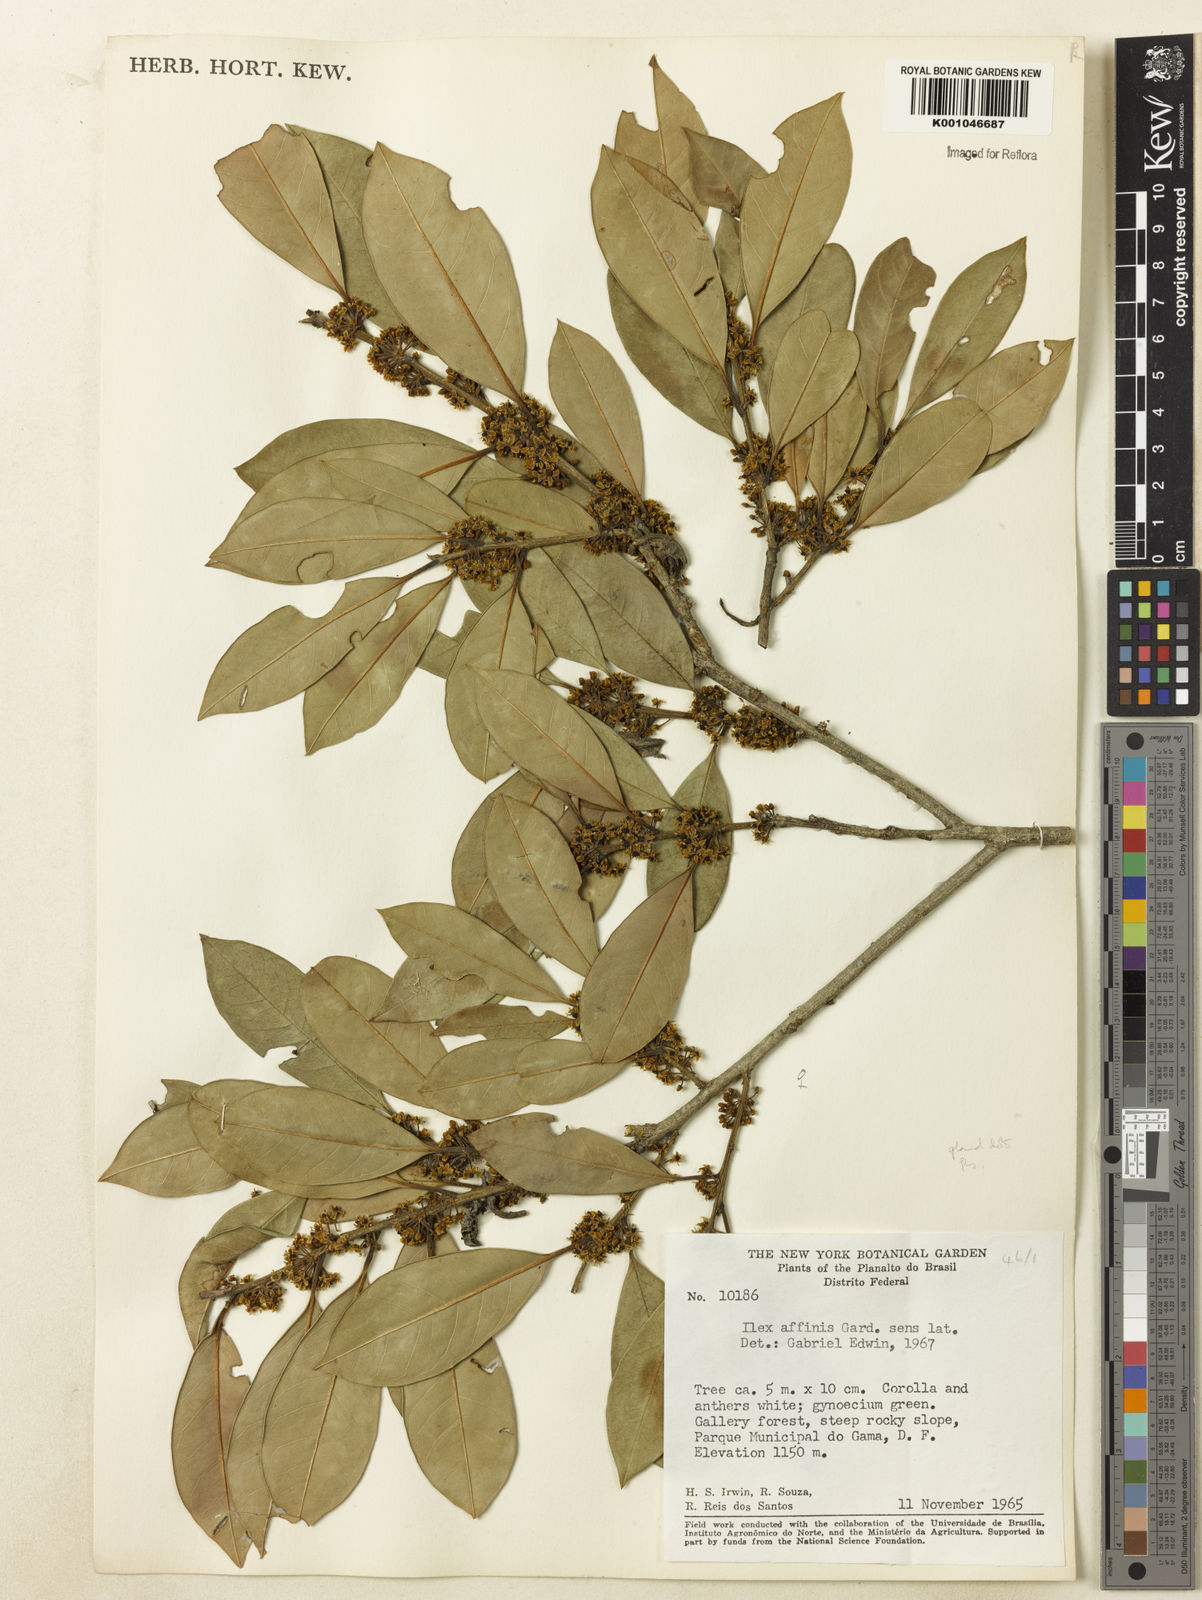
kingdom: Plantae
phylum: Tracheophyta
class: Magnoliopsida
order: Aquifoliales
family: Aquifoliaceae
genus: Ilex
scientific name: Ilex lundii
